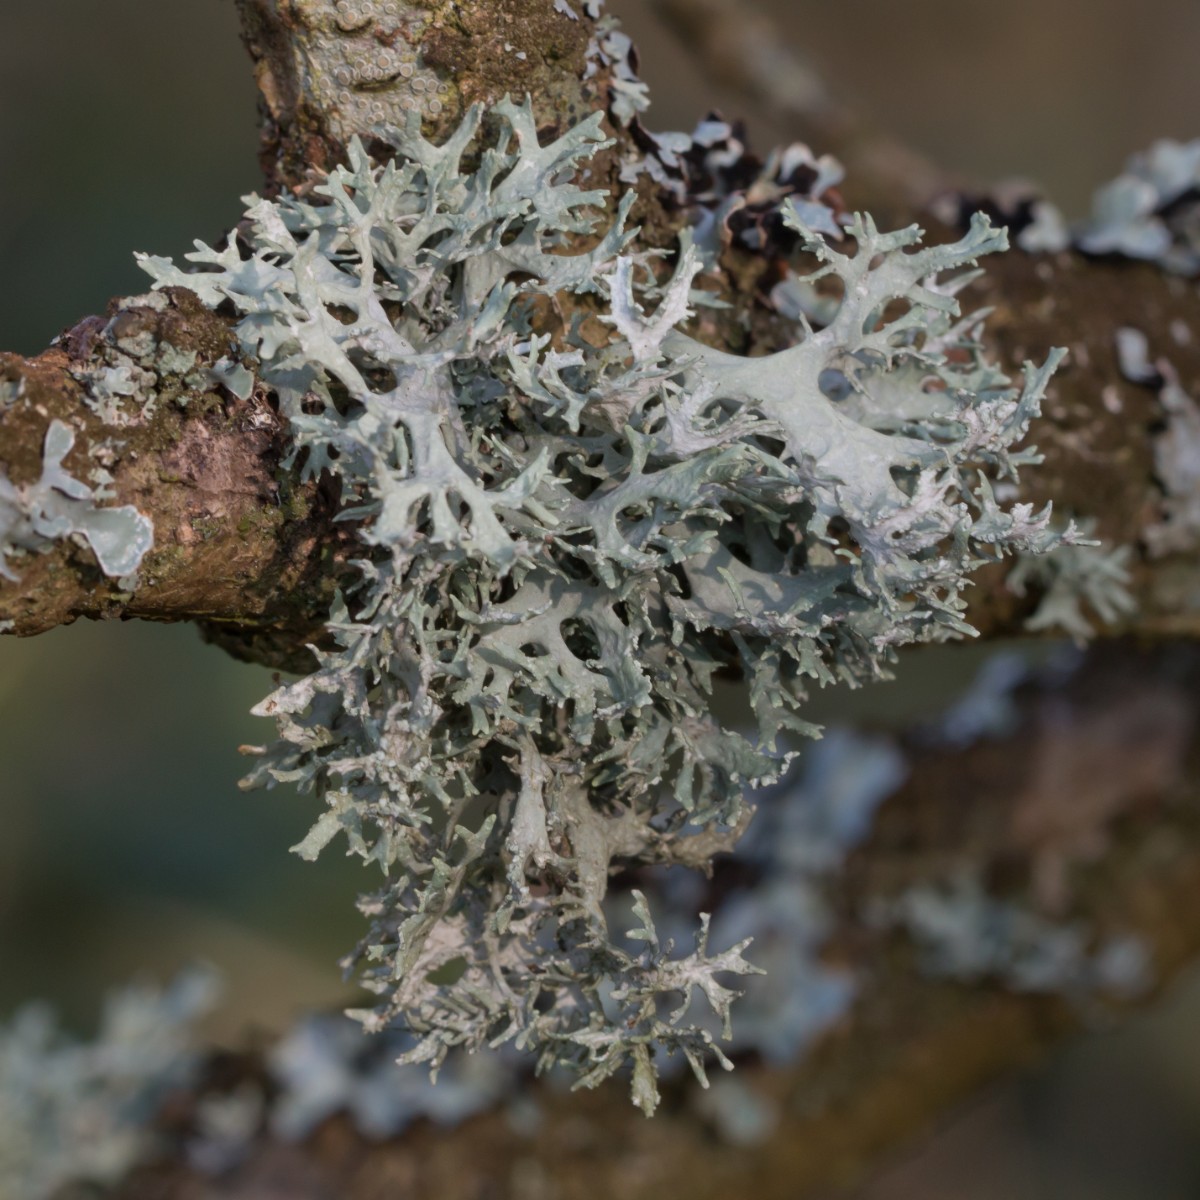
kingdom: Fungi
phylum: Ascomycota
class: Lecanoromycetes
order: Lecanorales
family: Parmeliaceae
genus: Evernia
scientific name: Evernia prunastri
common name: almindelig slåenlav
